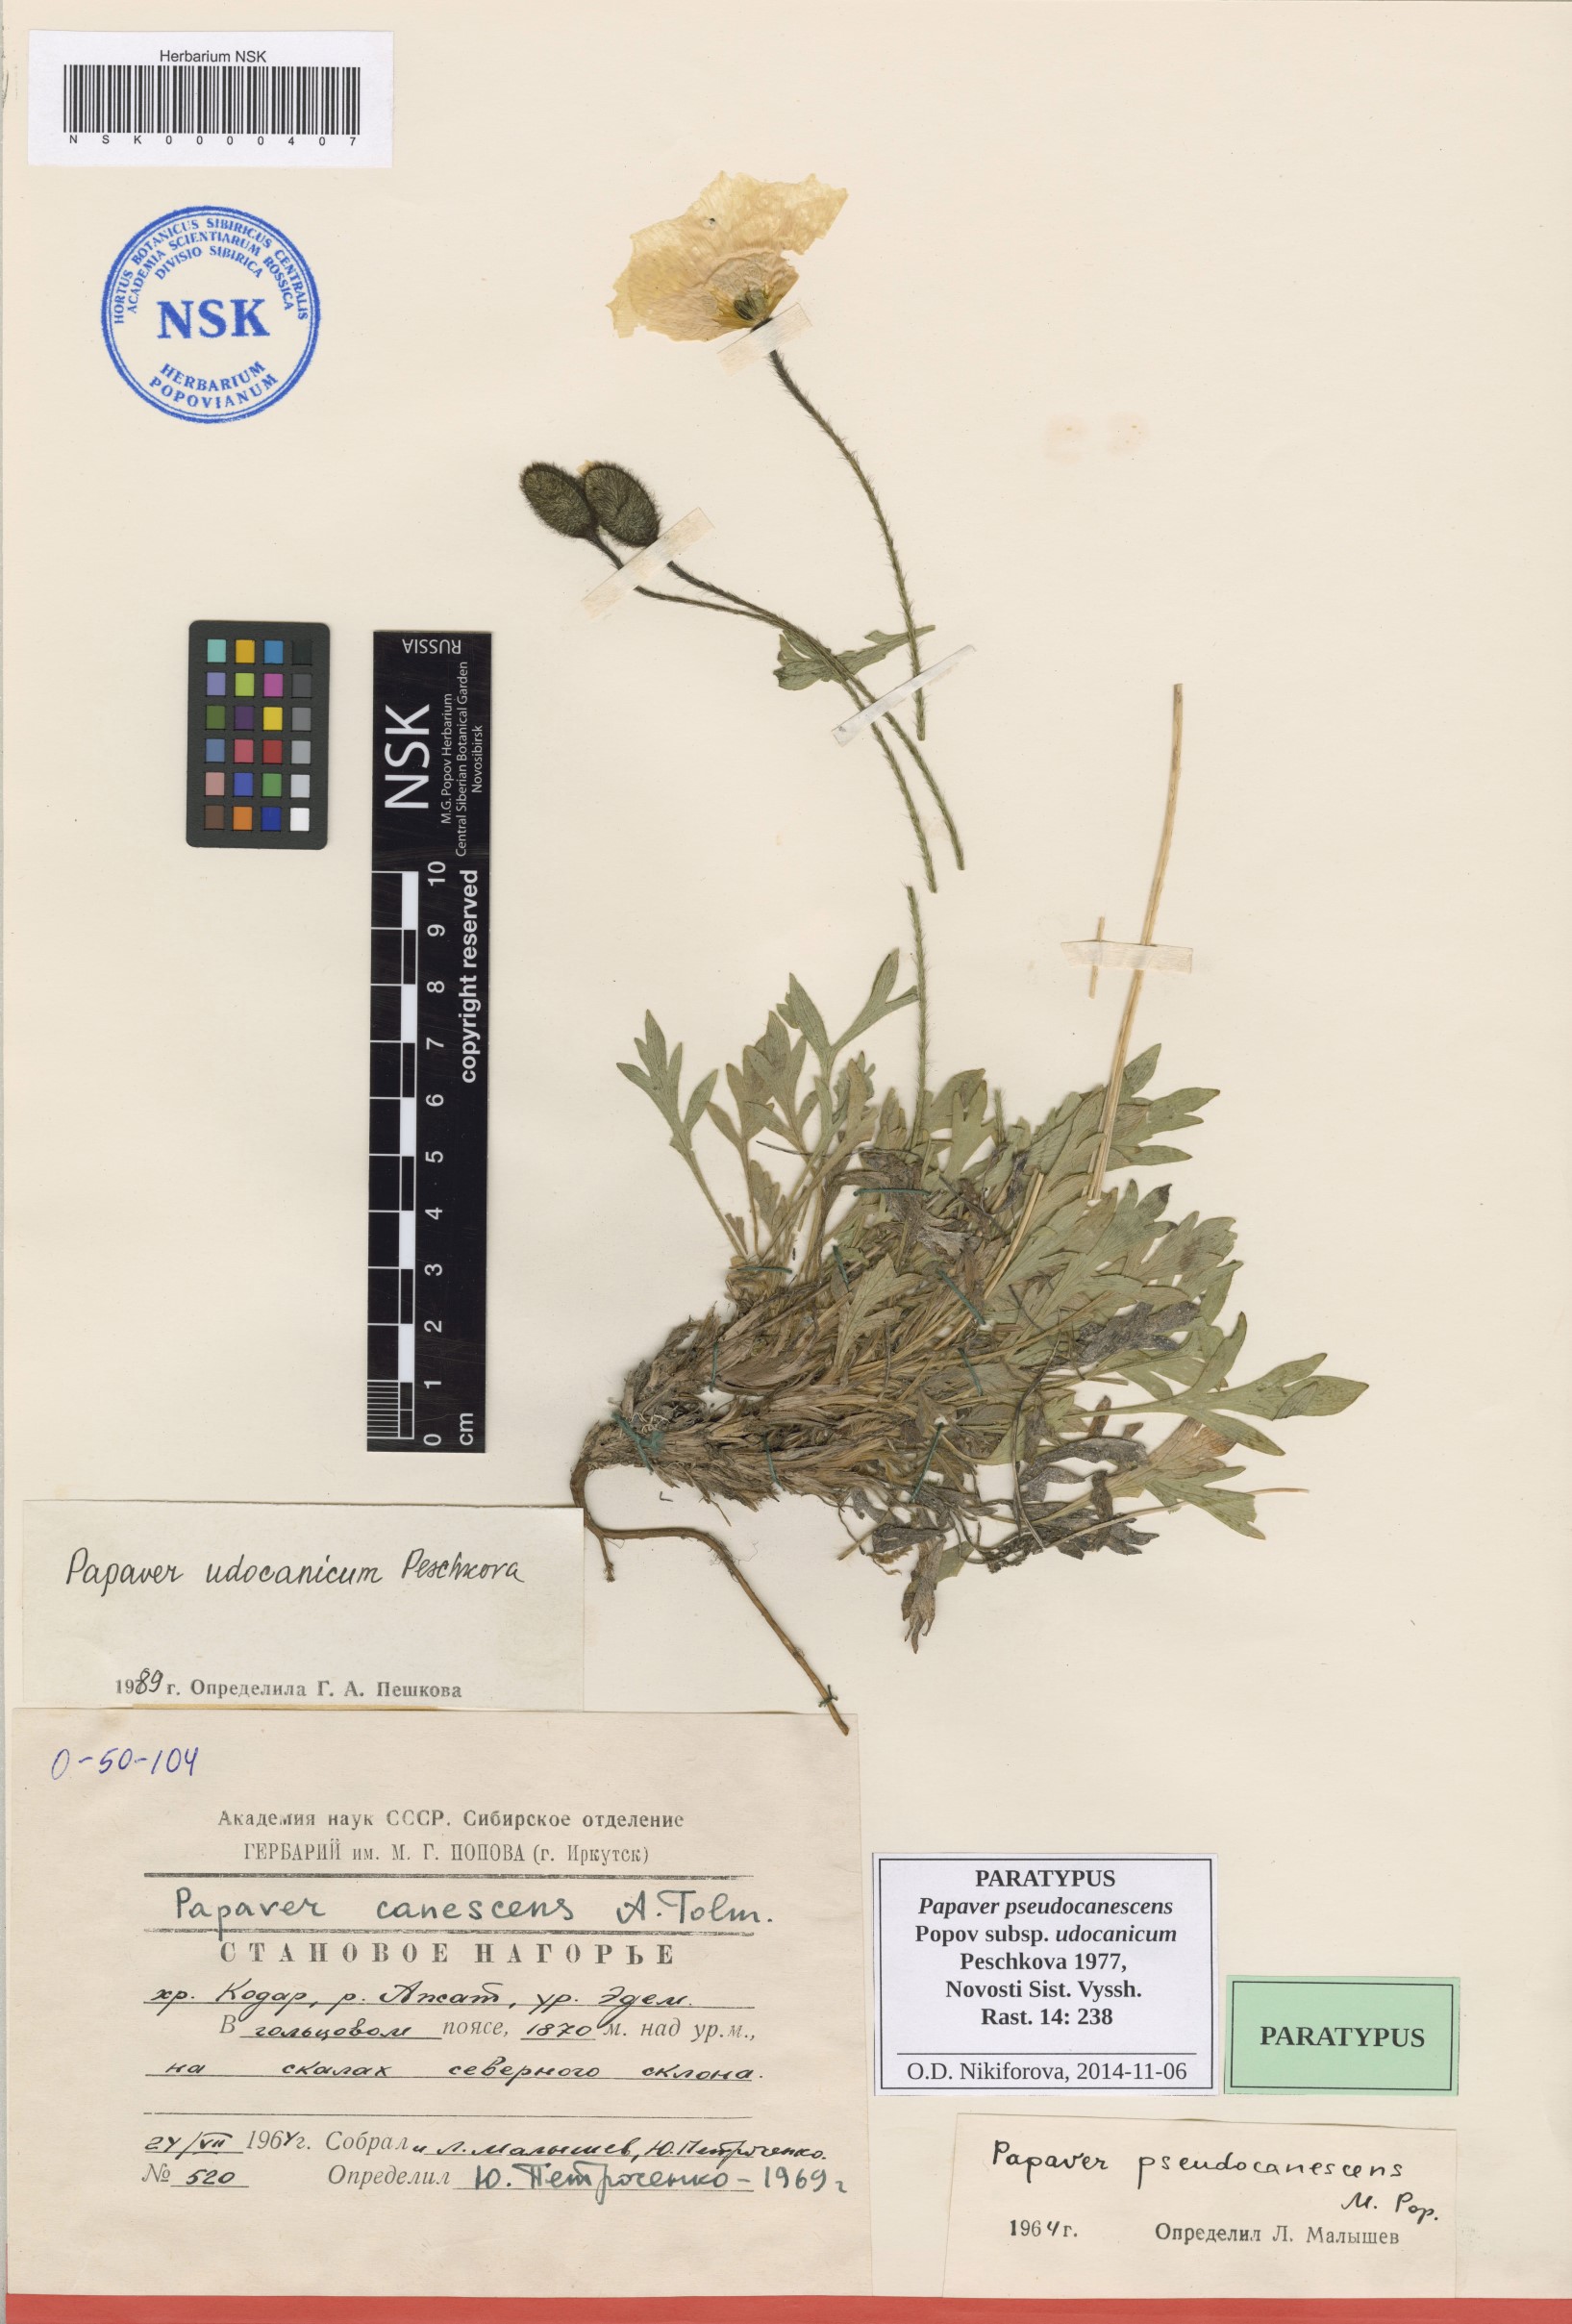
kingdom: Plantae
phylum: Tracheophyta
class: Magnoliopsida
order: Ranunculales
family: Papaveraceae
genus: Papaver
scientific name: Papaver udocanicum
